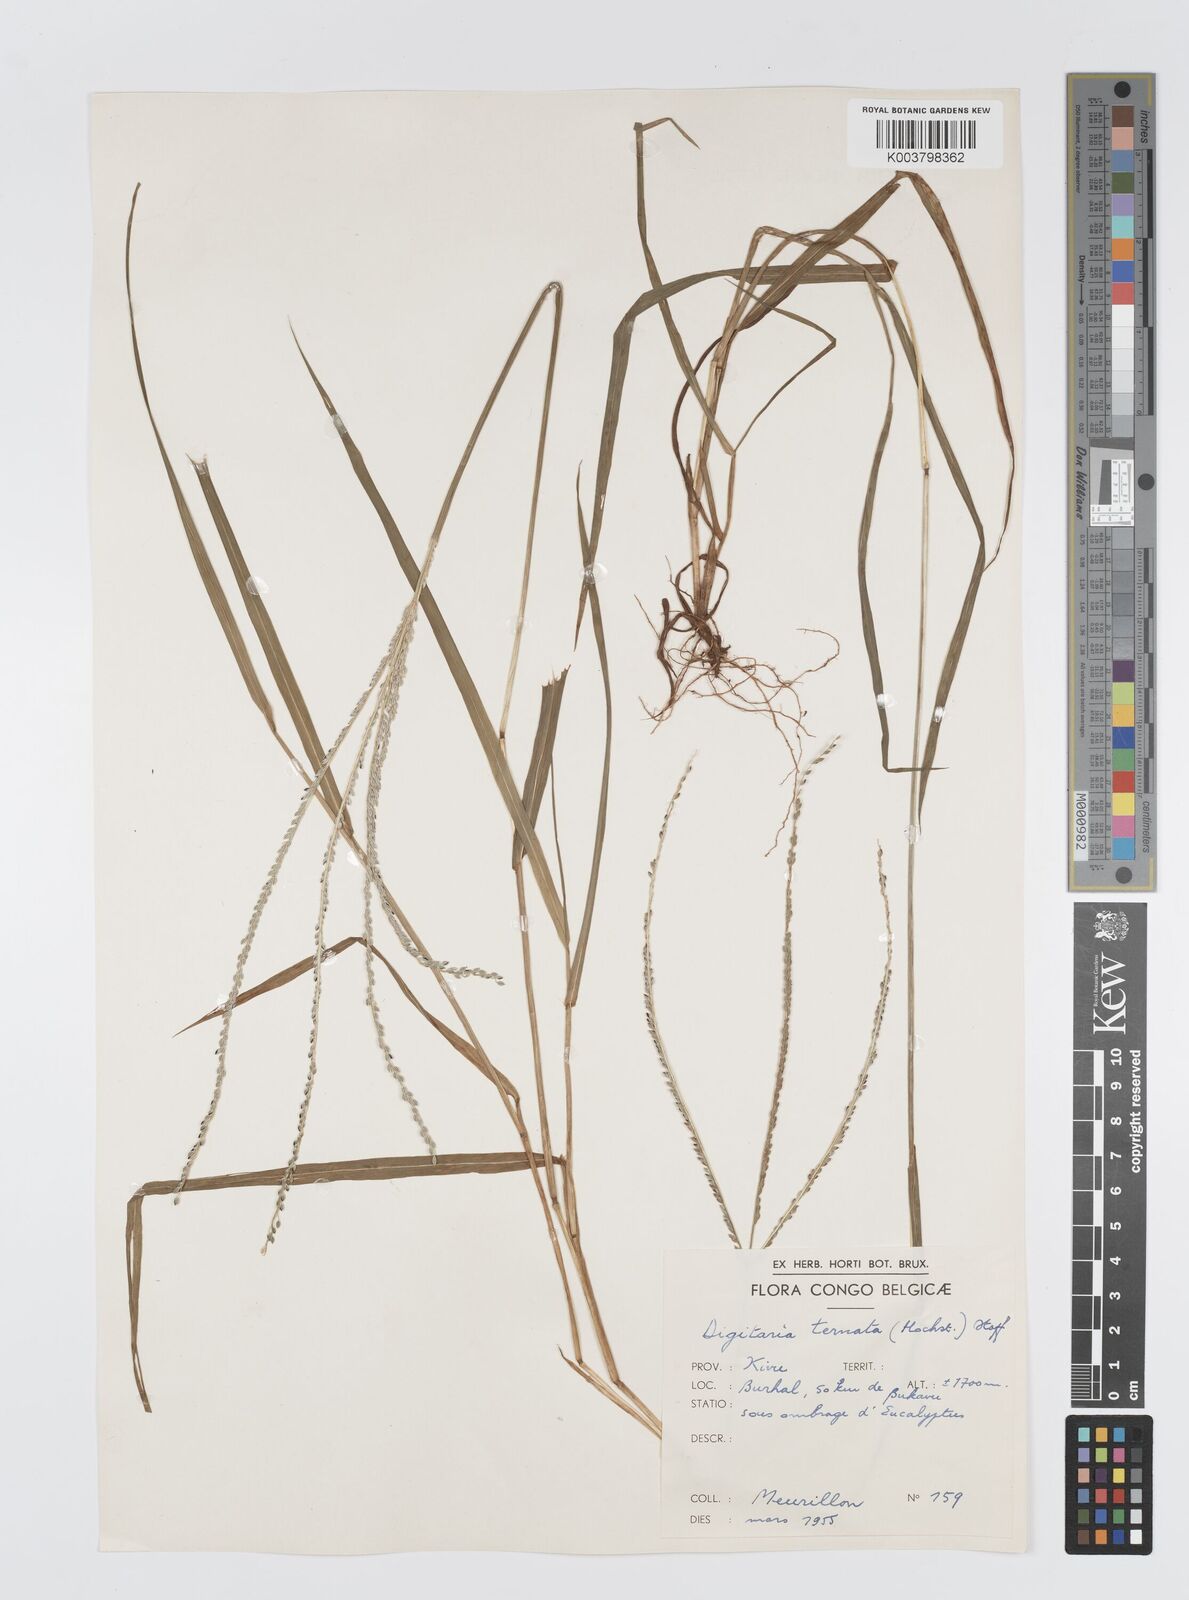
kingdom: Plantae
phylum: Tracheophyta
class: Liliopsida
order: Poales
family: Poaceae
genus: Digitaria
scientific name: Digitaria ternata
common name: Blackseed crabgrass
